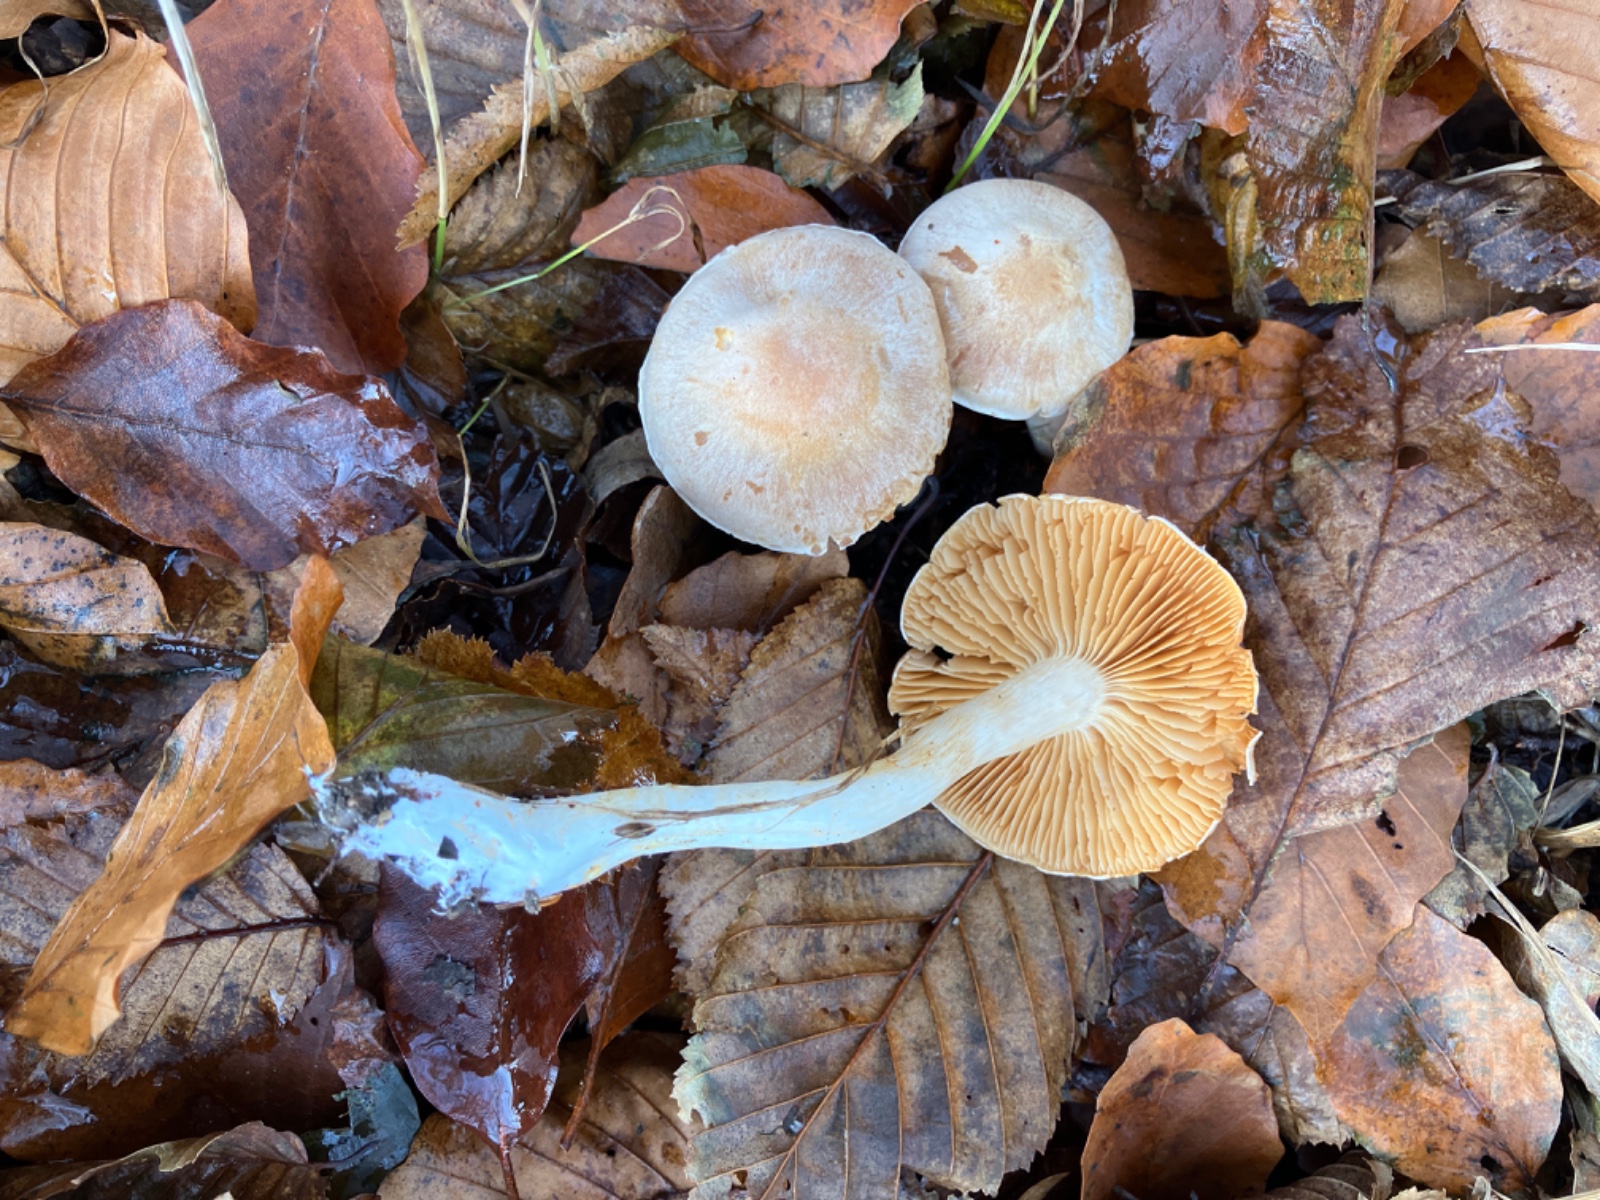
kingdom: Fungi
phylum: Basidiomycota
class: Agaricomycetes
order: Agaricales
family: Cortinariaceae
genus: Thaxterogaster
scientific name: Thaxterogaster leucoluteolus
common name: isabella slørhat
